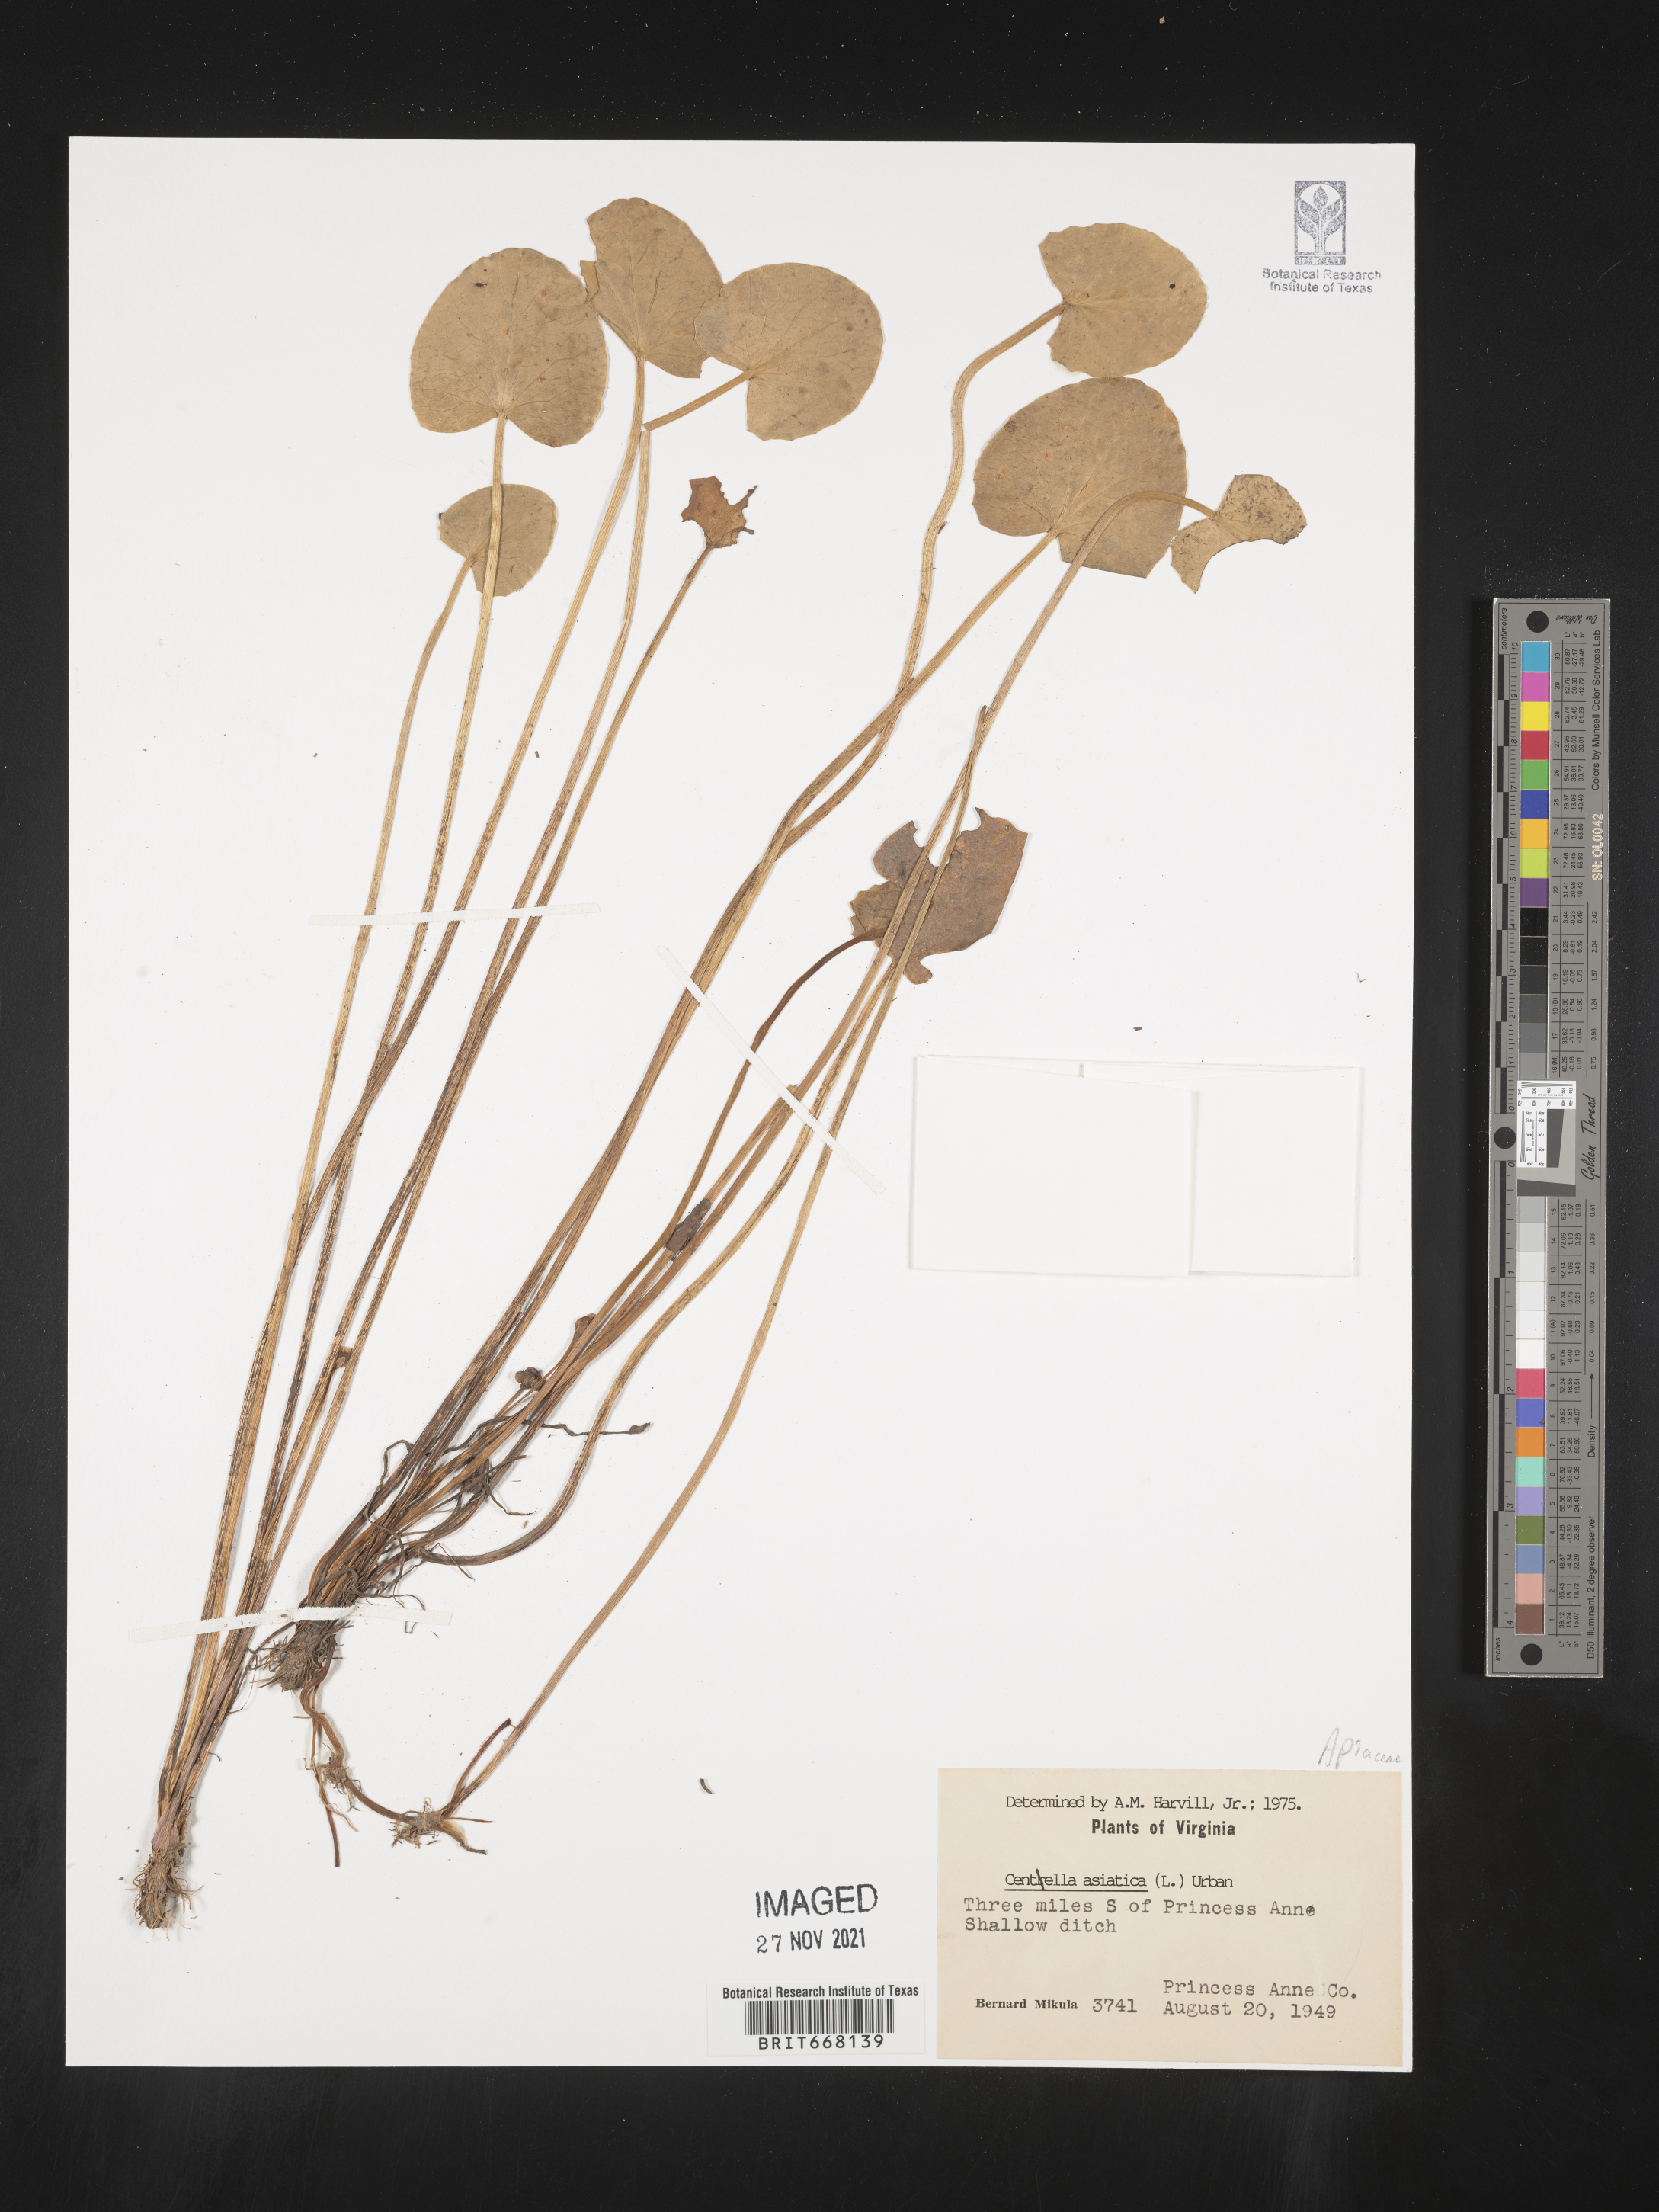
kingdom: Plantae
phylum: Tracheophyta
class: Magnoliopsida
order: Apiales
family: Apiaceae
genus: Centella
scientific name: Centella
